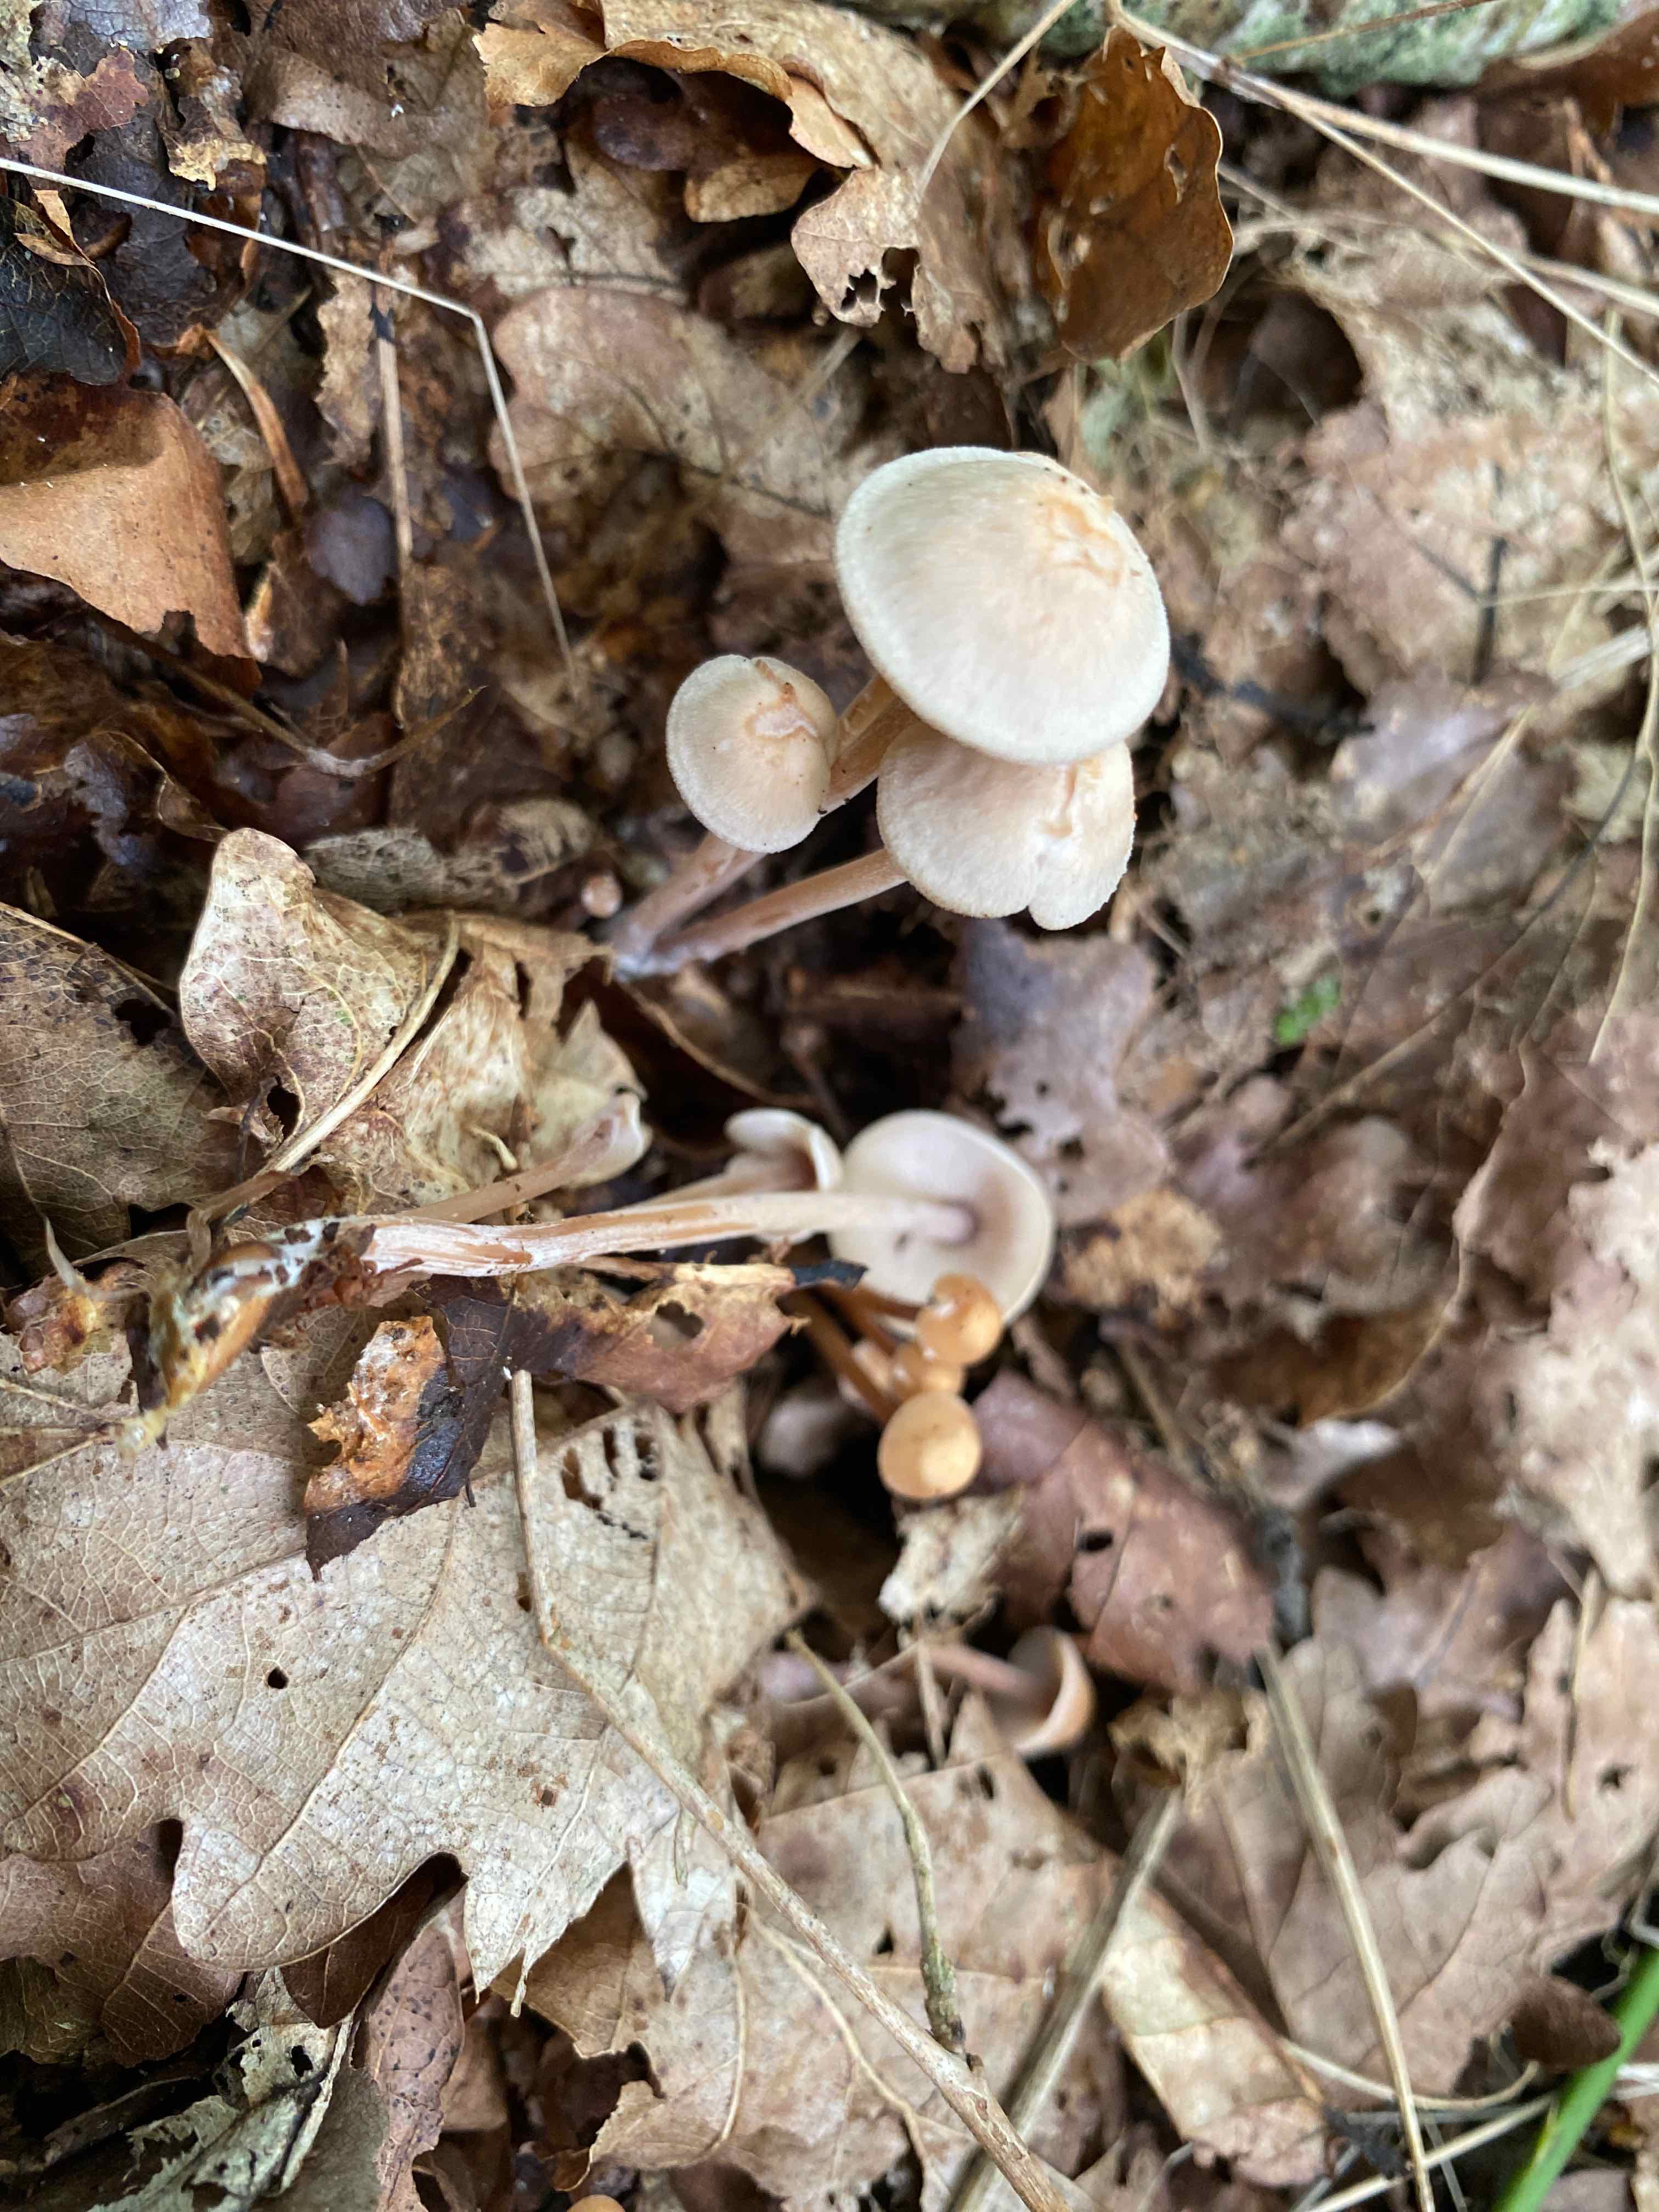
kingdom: Fungi
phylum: Basidiomycota
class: Agaricomycetes
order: Agaricales
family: Omphalotaceae
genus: Collybiopsis
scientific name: Collybiopsis confluens
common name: knippe-fladhat
